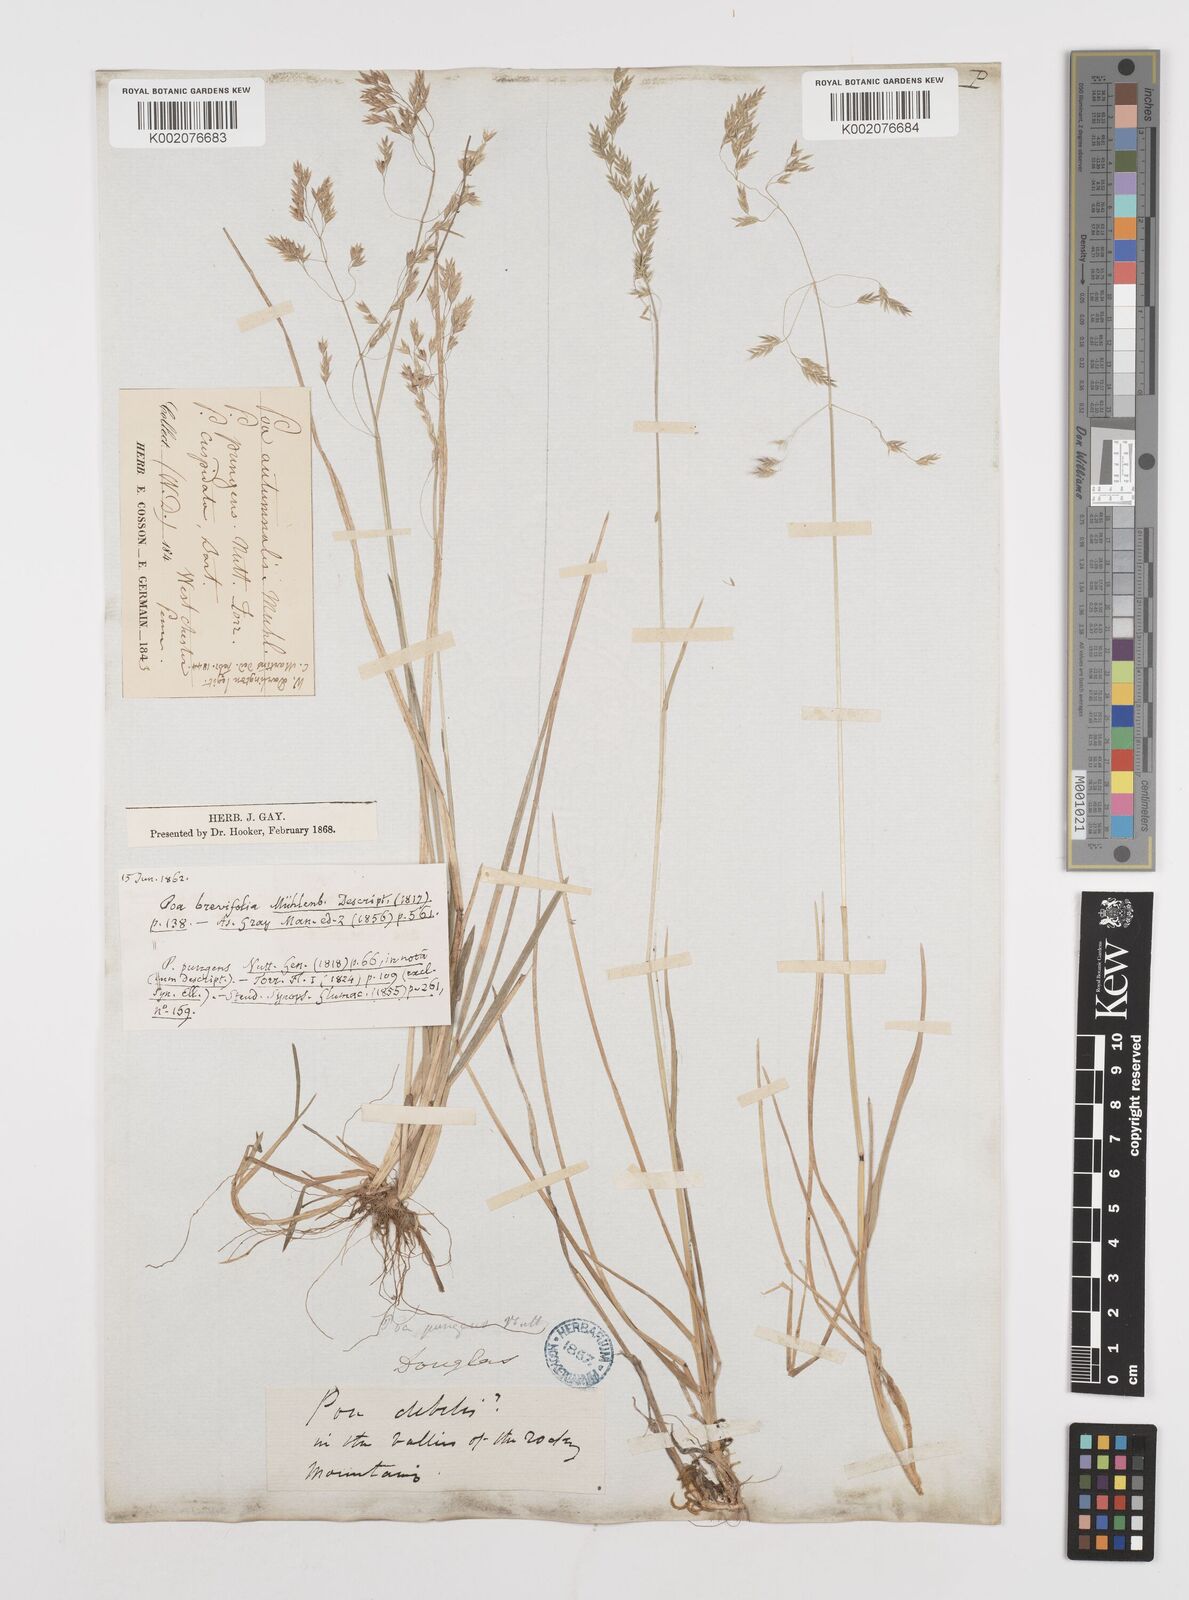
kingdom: Plantae
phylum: Tracheophyta
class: Liliopsida
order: Poales
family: Poaceae
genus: Poa
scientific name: Poa cuspidata
